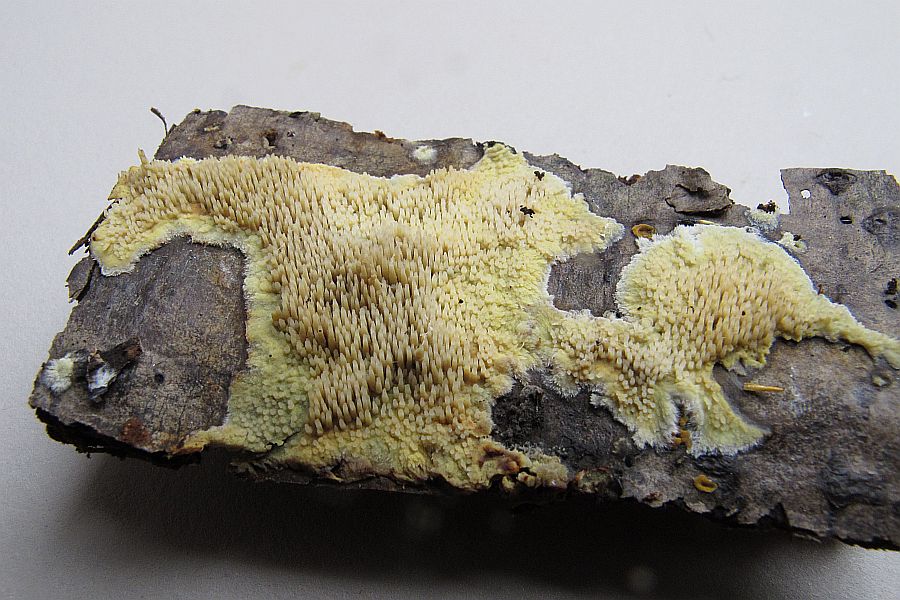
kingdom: Fungi
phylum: Basidiomycota
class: Agaricomycetes
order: Polyporales
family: Meruliaceae
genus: Mycoacia
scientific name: Mycoacia uda
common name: citrongul vokspig
